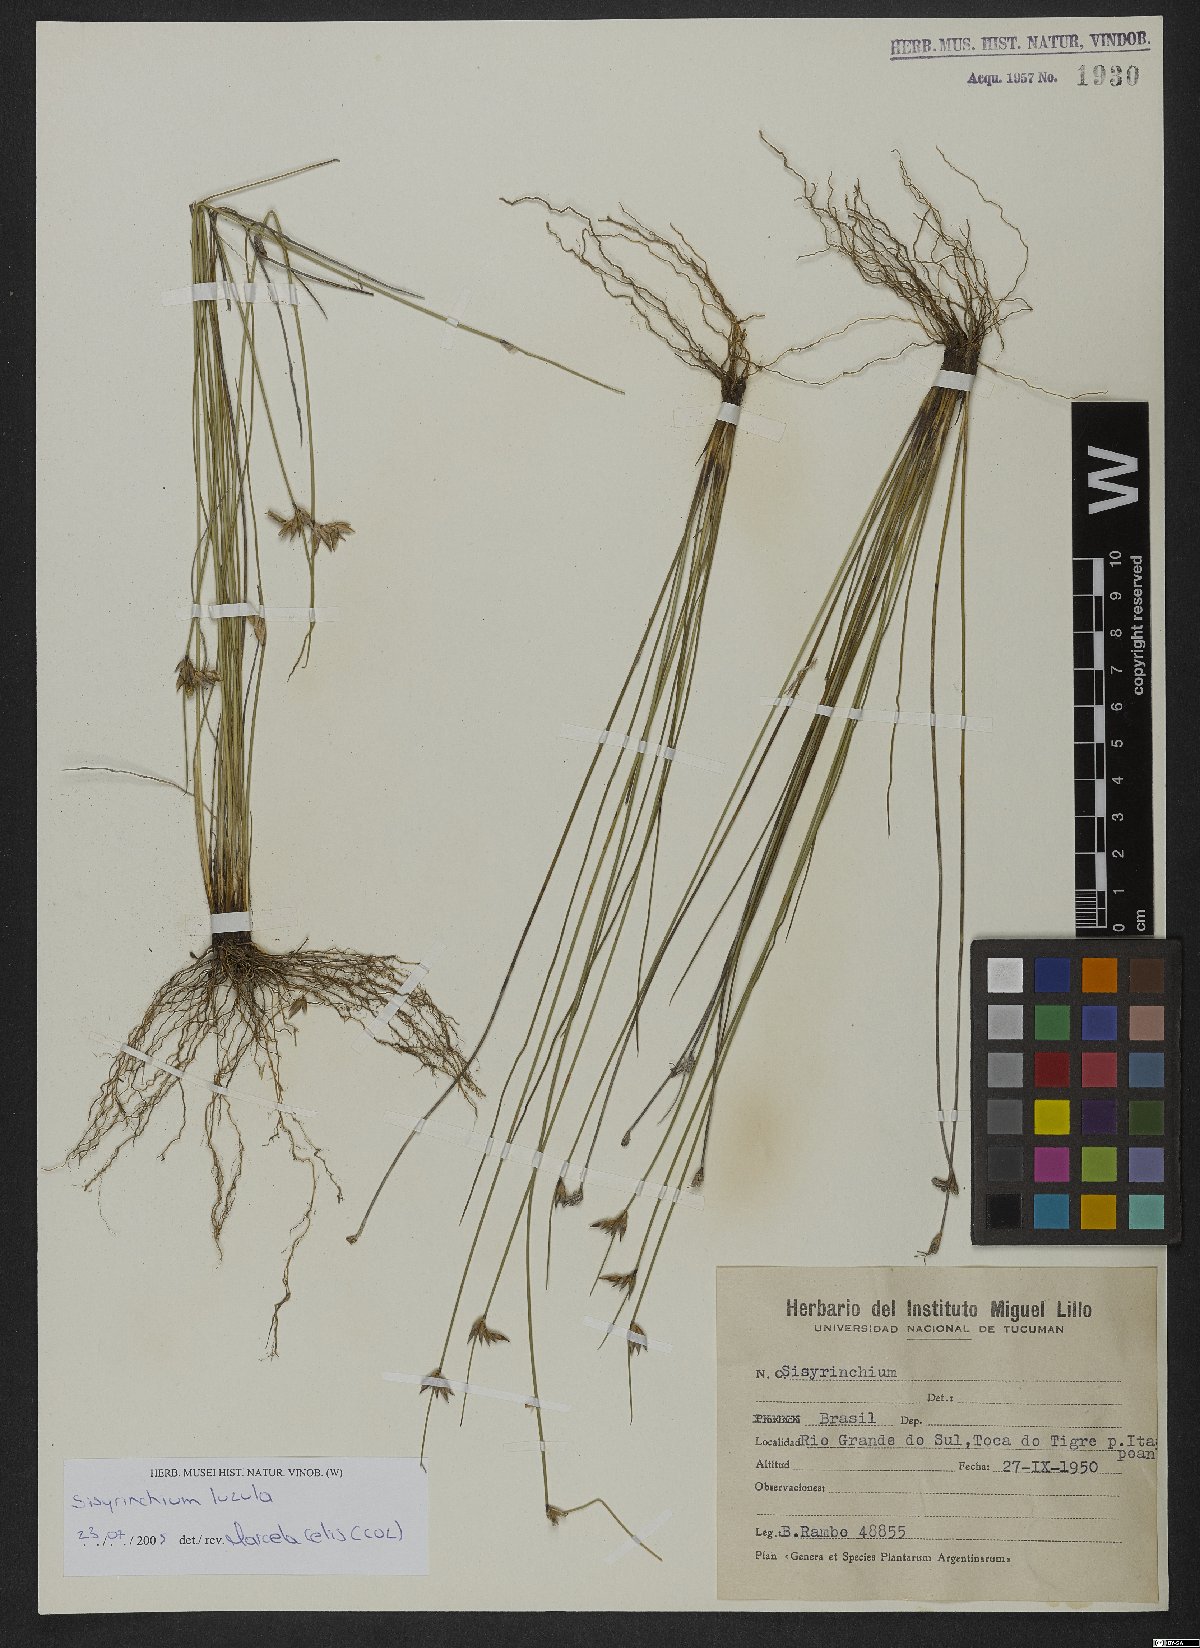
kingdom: Plantae
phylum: Tracheophyta
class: Liliopsida
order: Asparagales
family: Iridaceae
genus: Sisyrinchium
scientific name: Sisyrinchium luzula
